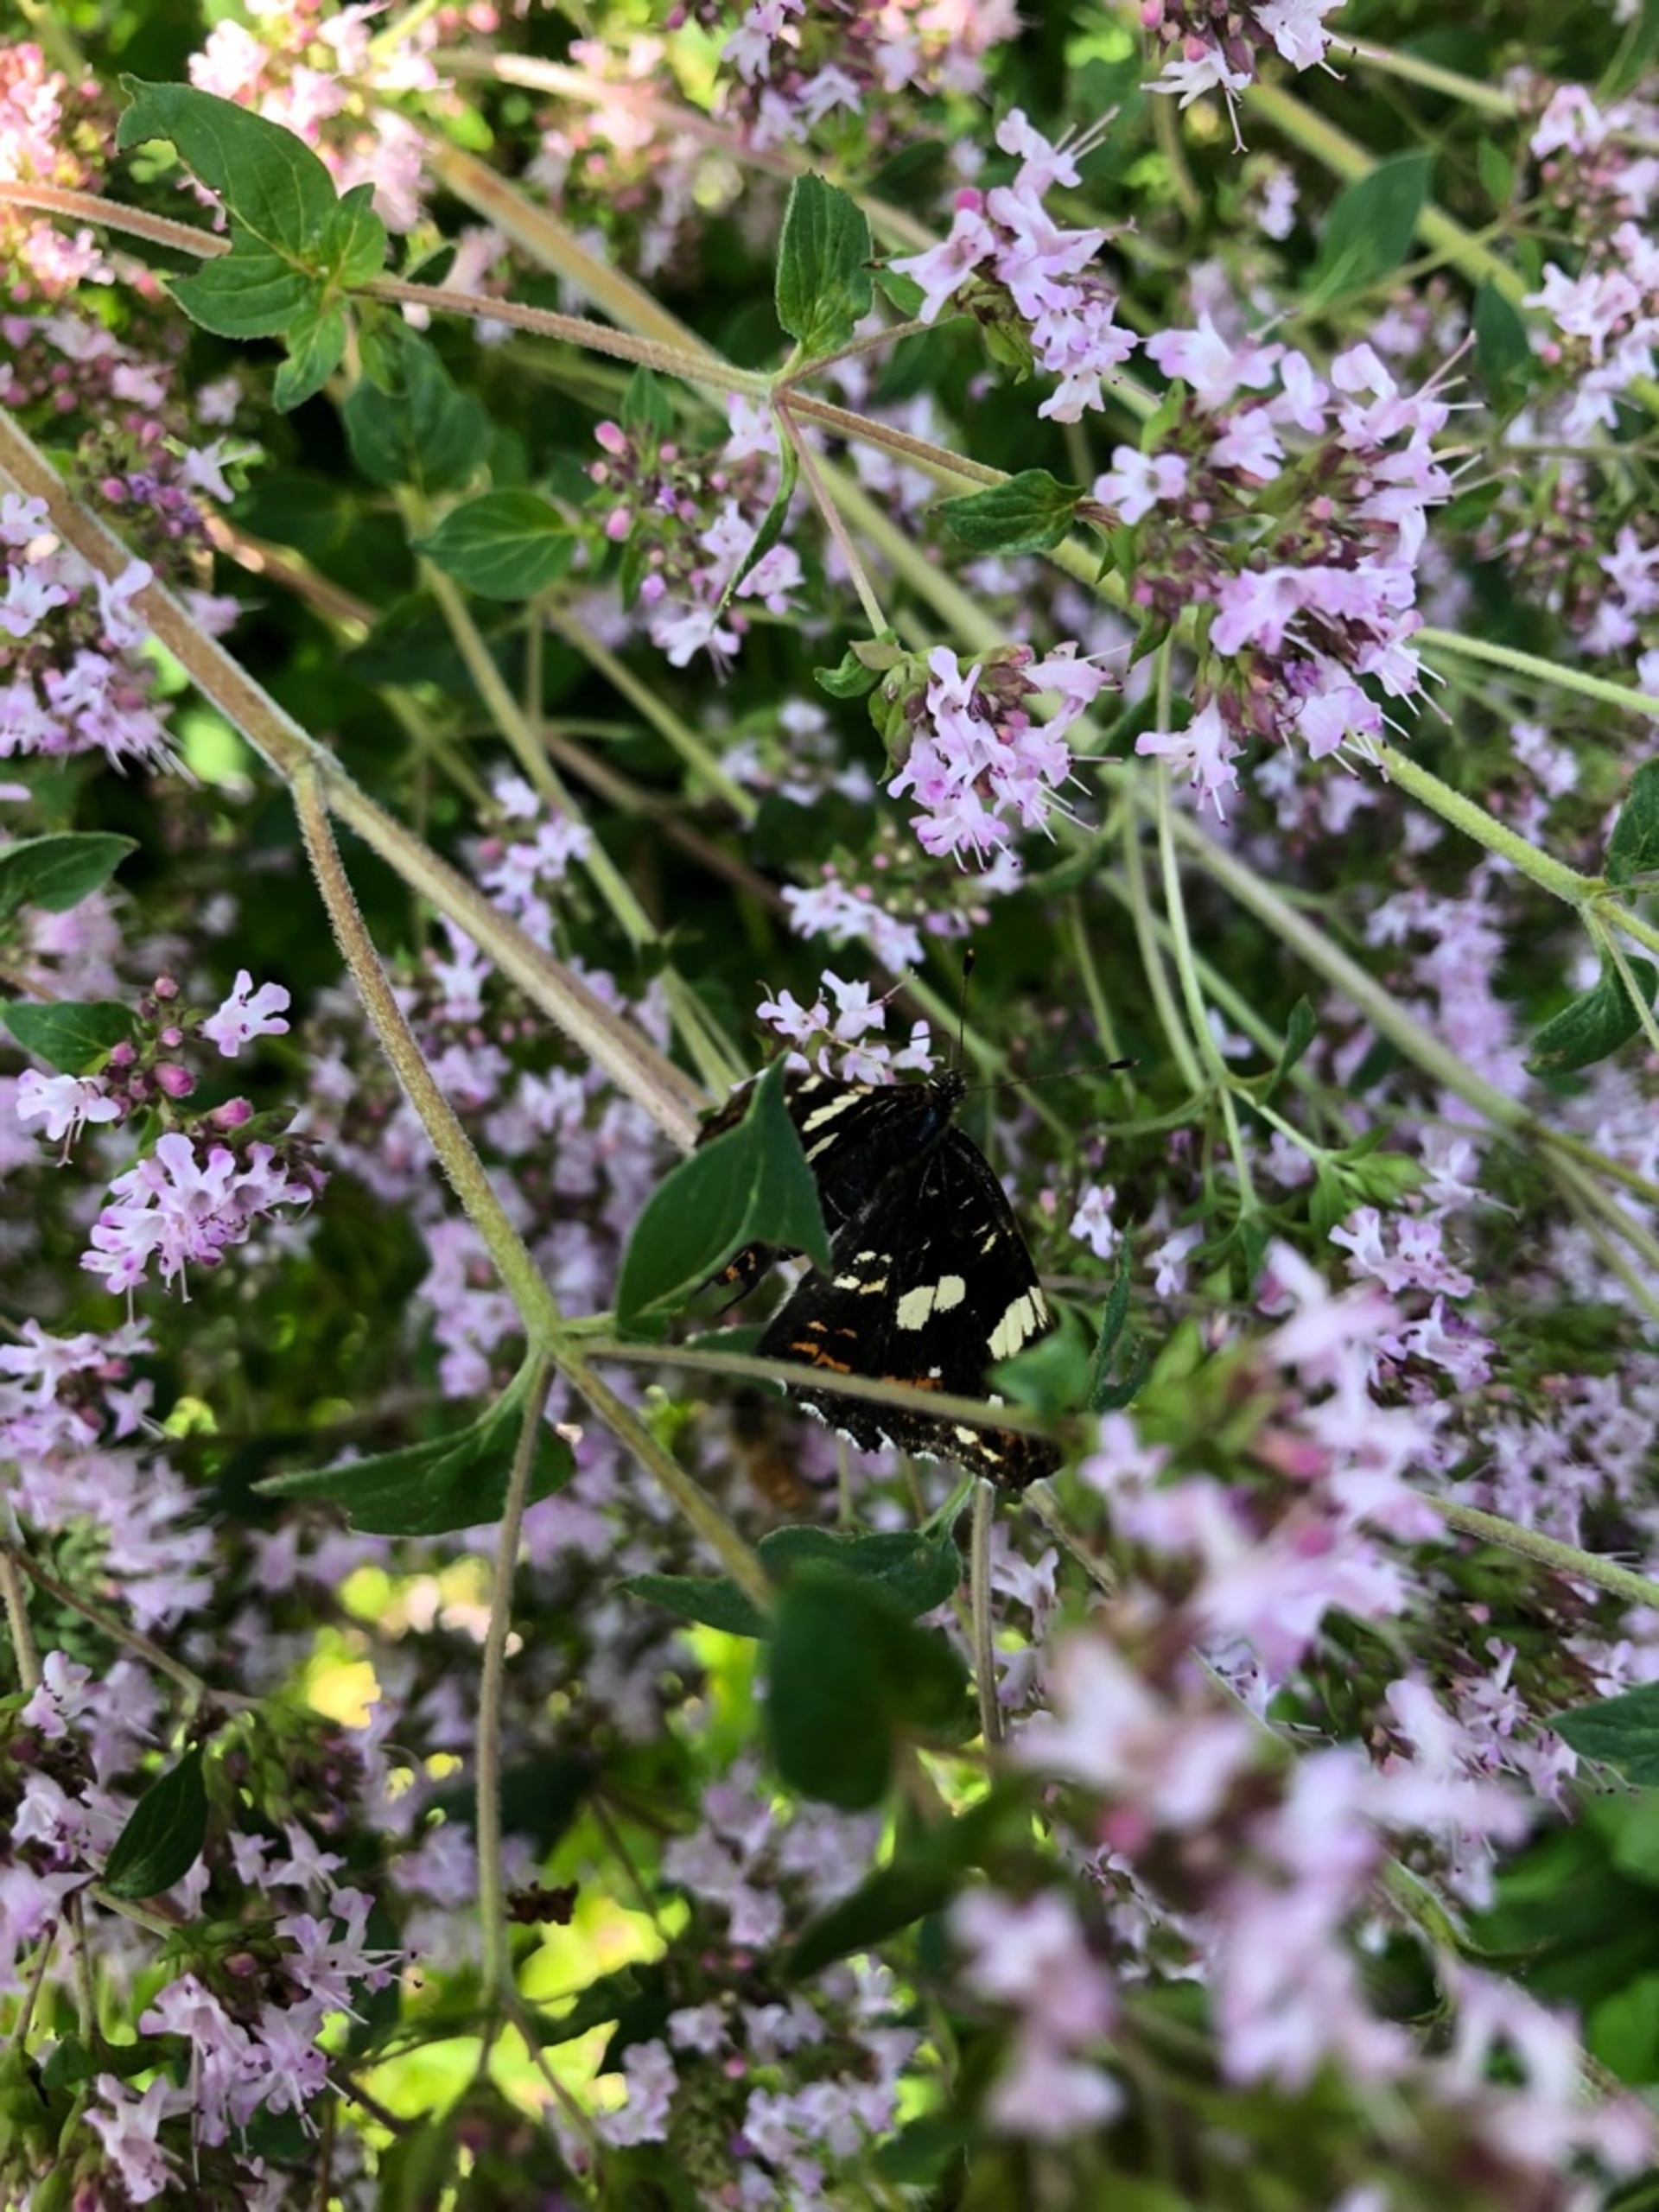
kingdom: Animalia
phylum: Arthropoda
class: Insecta
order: Lepidoptera
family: Nymphalidae
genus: Araschnia
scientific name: Araschnia levana
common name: Nældesommerfugl
